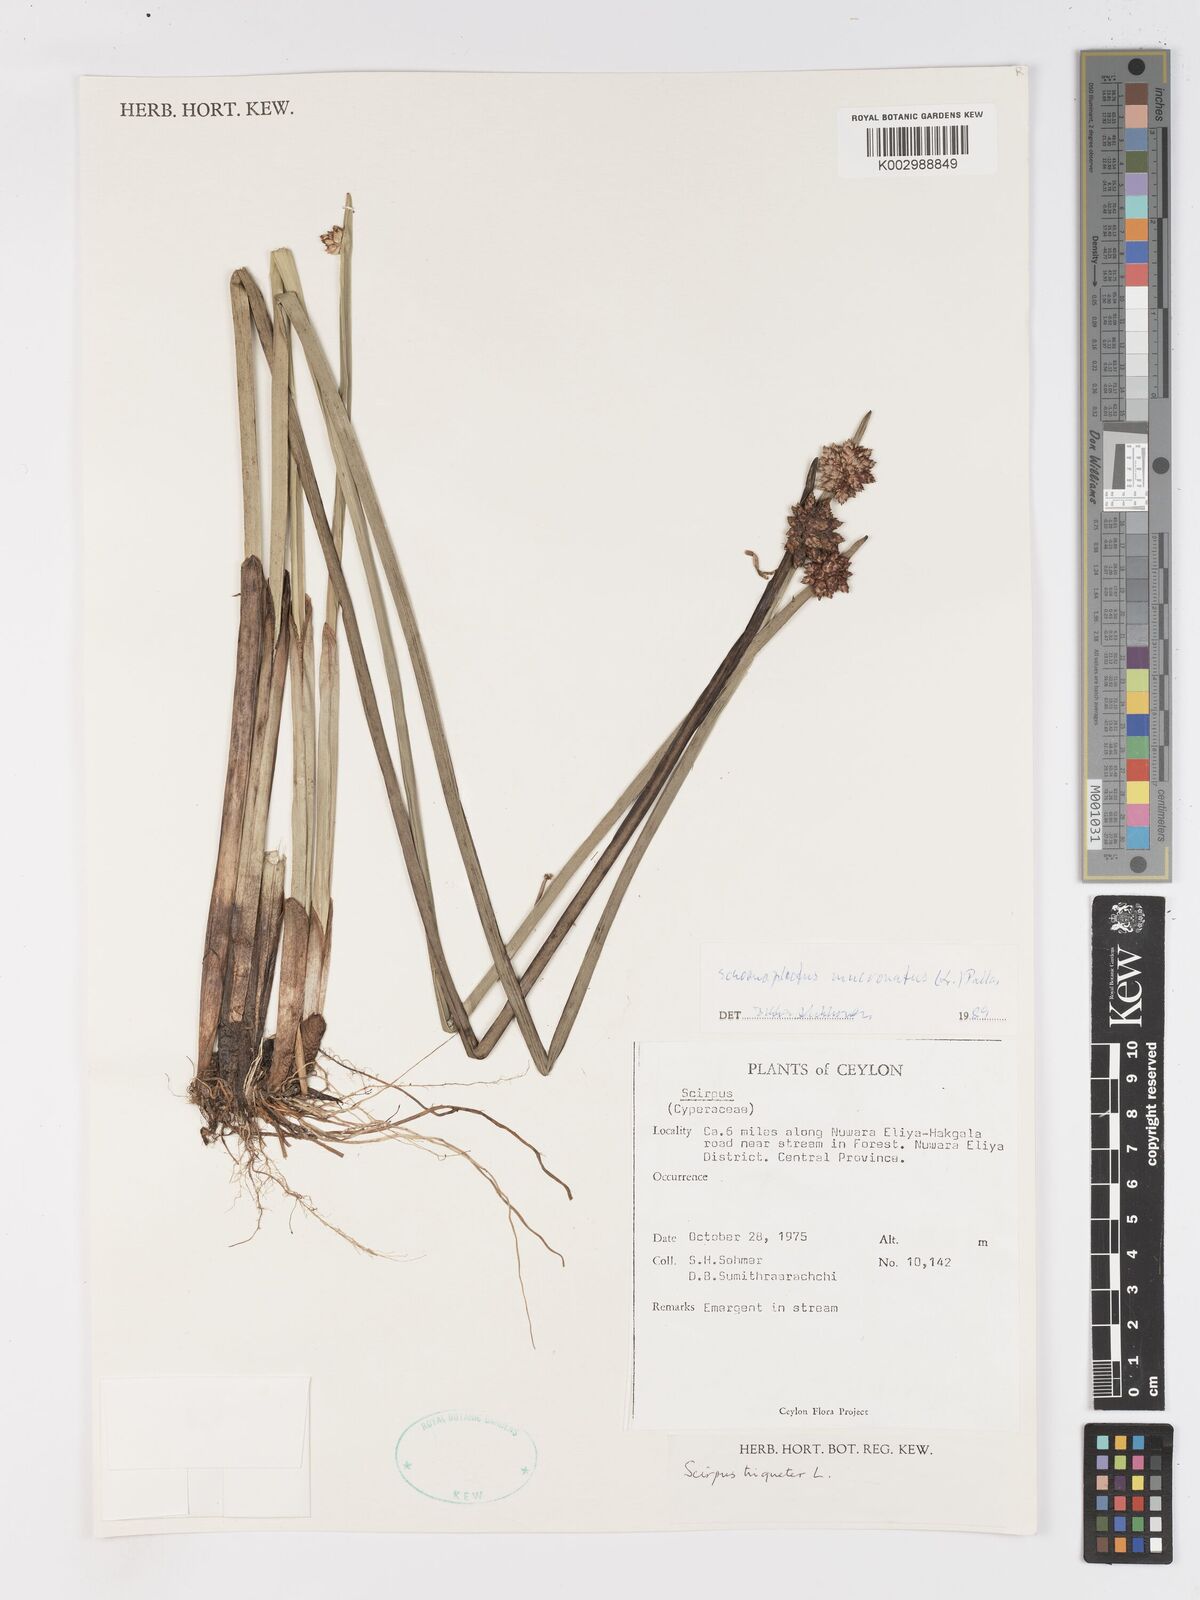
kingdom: Plantae
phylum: Tracheophyta
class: Liliopsida
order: Poales
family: Cyperaceae
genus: Schoenoplectiella
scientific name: Schoenoplectiella mucronata
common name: Bog bulrush
